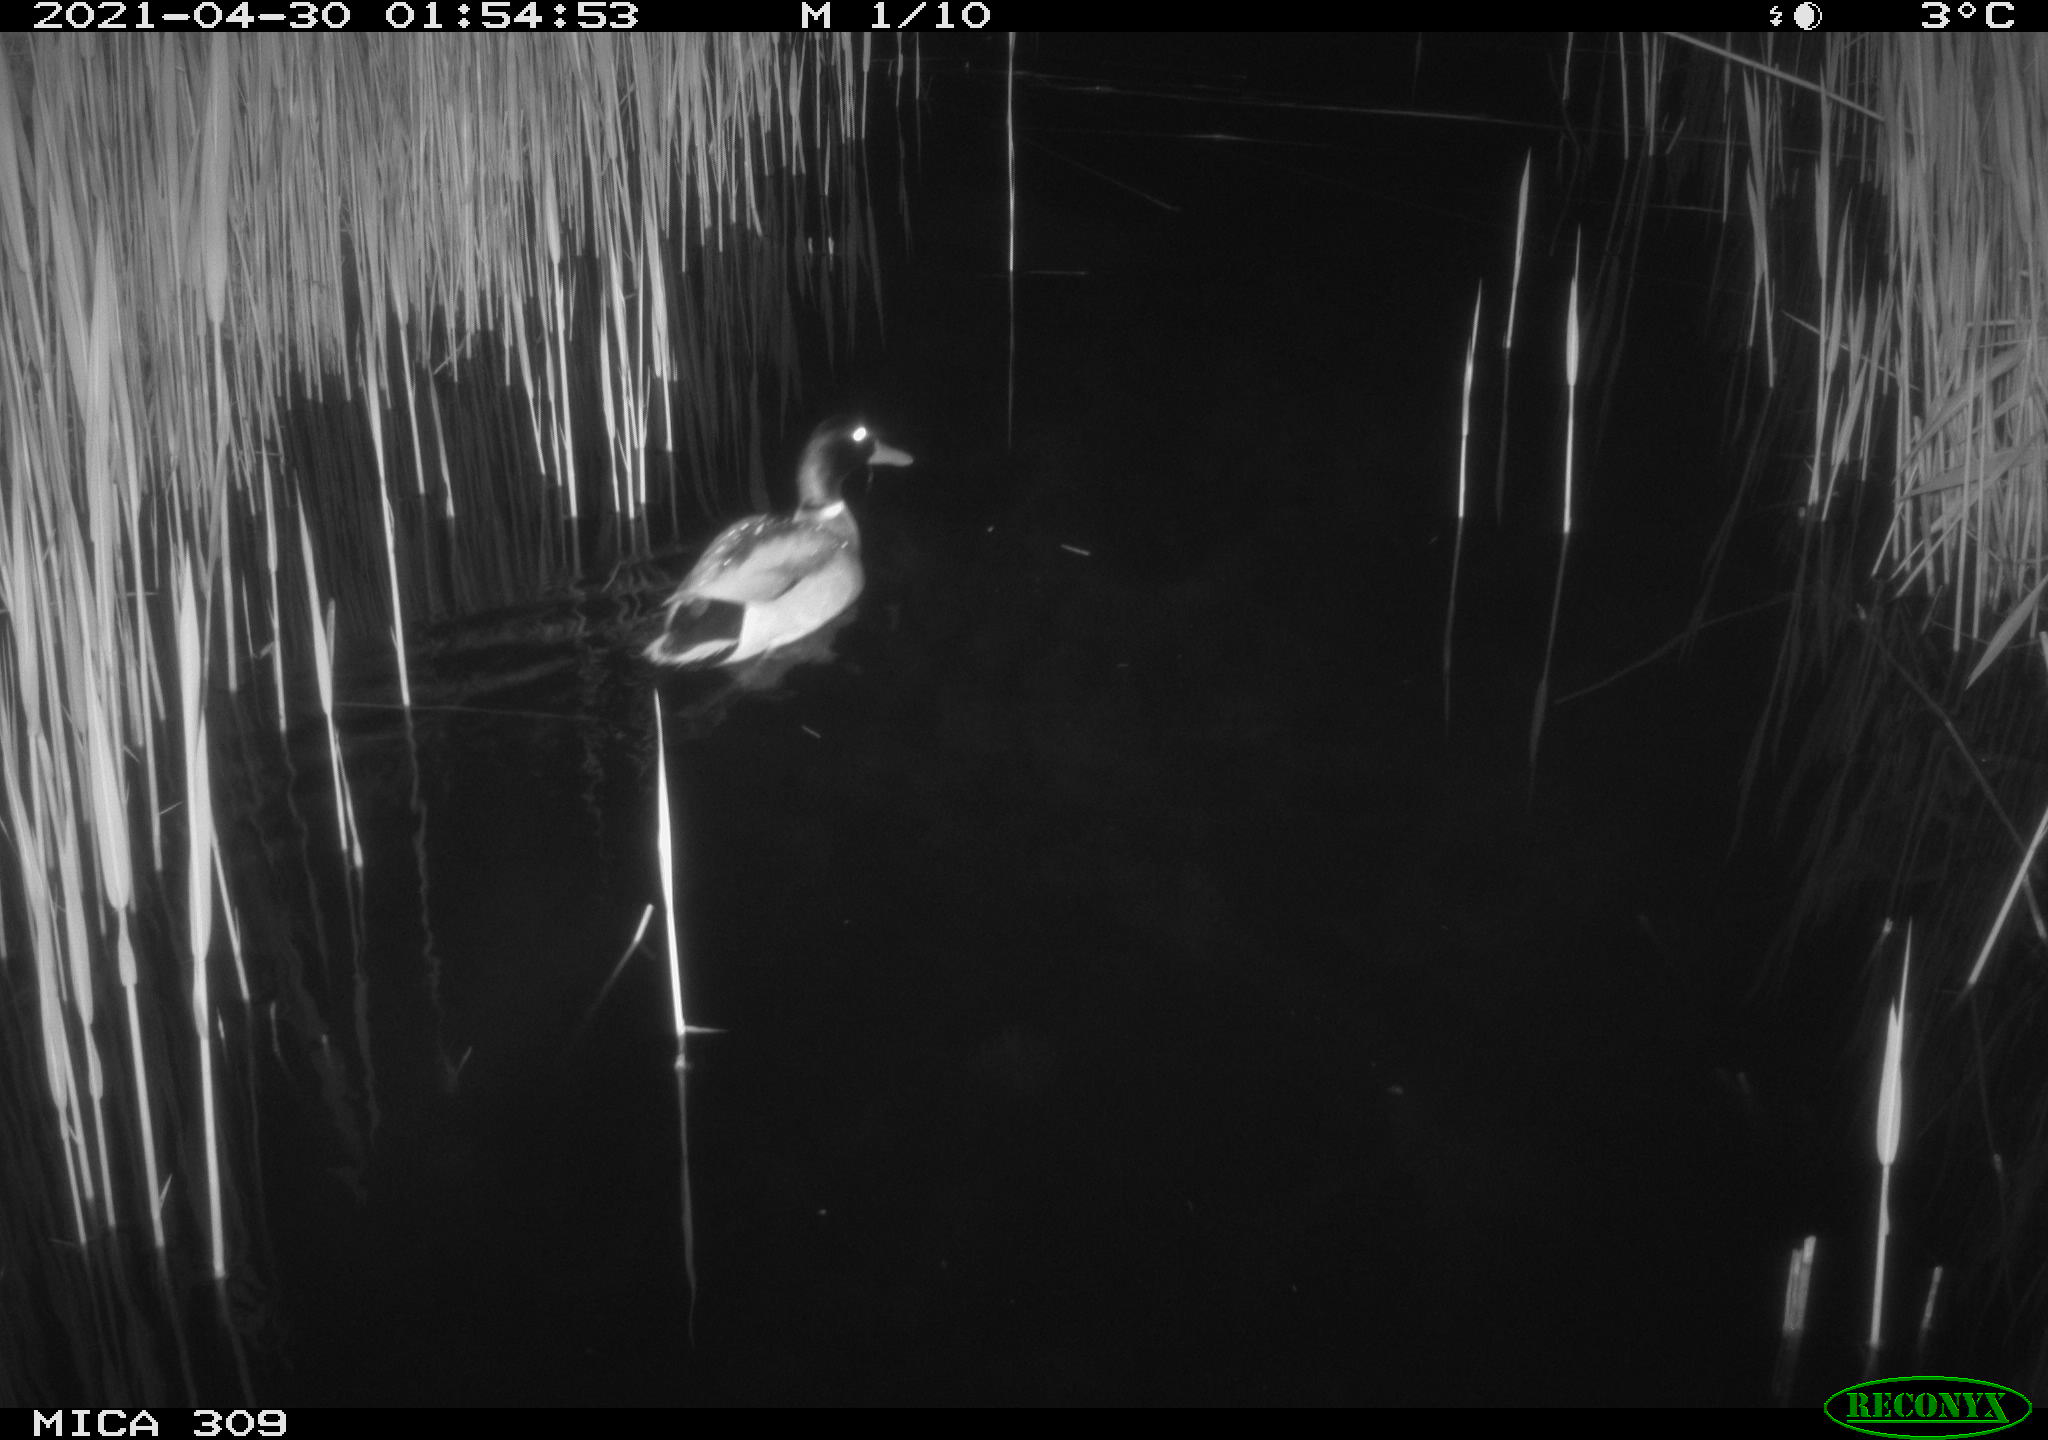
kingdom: Animalia
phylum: Chordata
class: Aves
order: Anseriformes
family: Anatidae
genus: Anas
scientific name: Anas platyrhynchos
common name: Mallard
